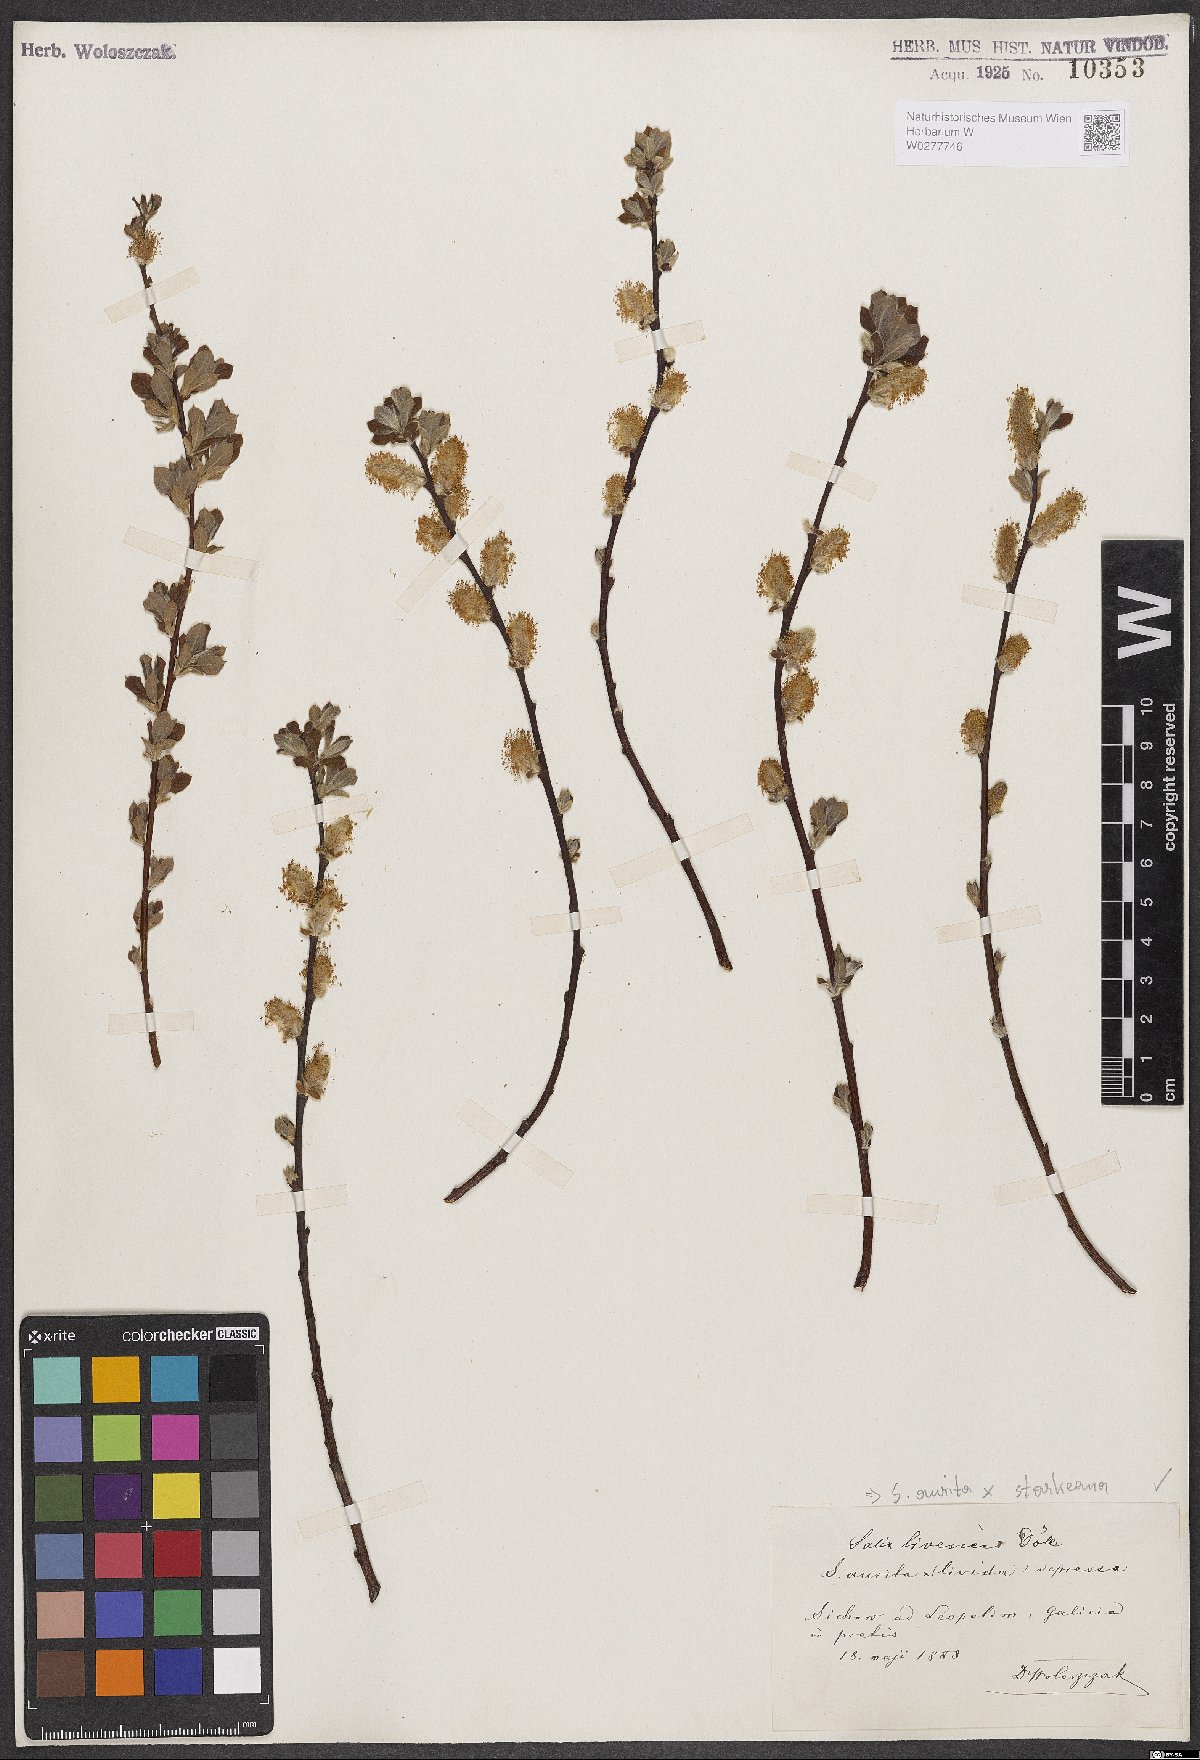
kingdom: Plantae
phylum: Tracheophyta
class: Magnoliopsida
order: Malpighiales
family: Salicaceae
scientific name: Salicaceae
